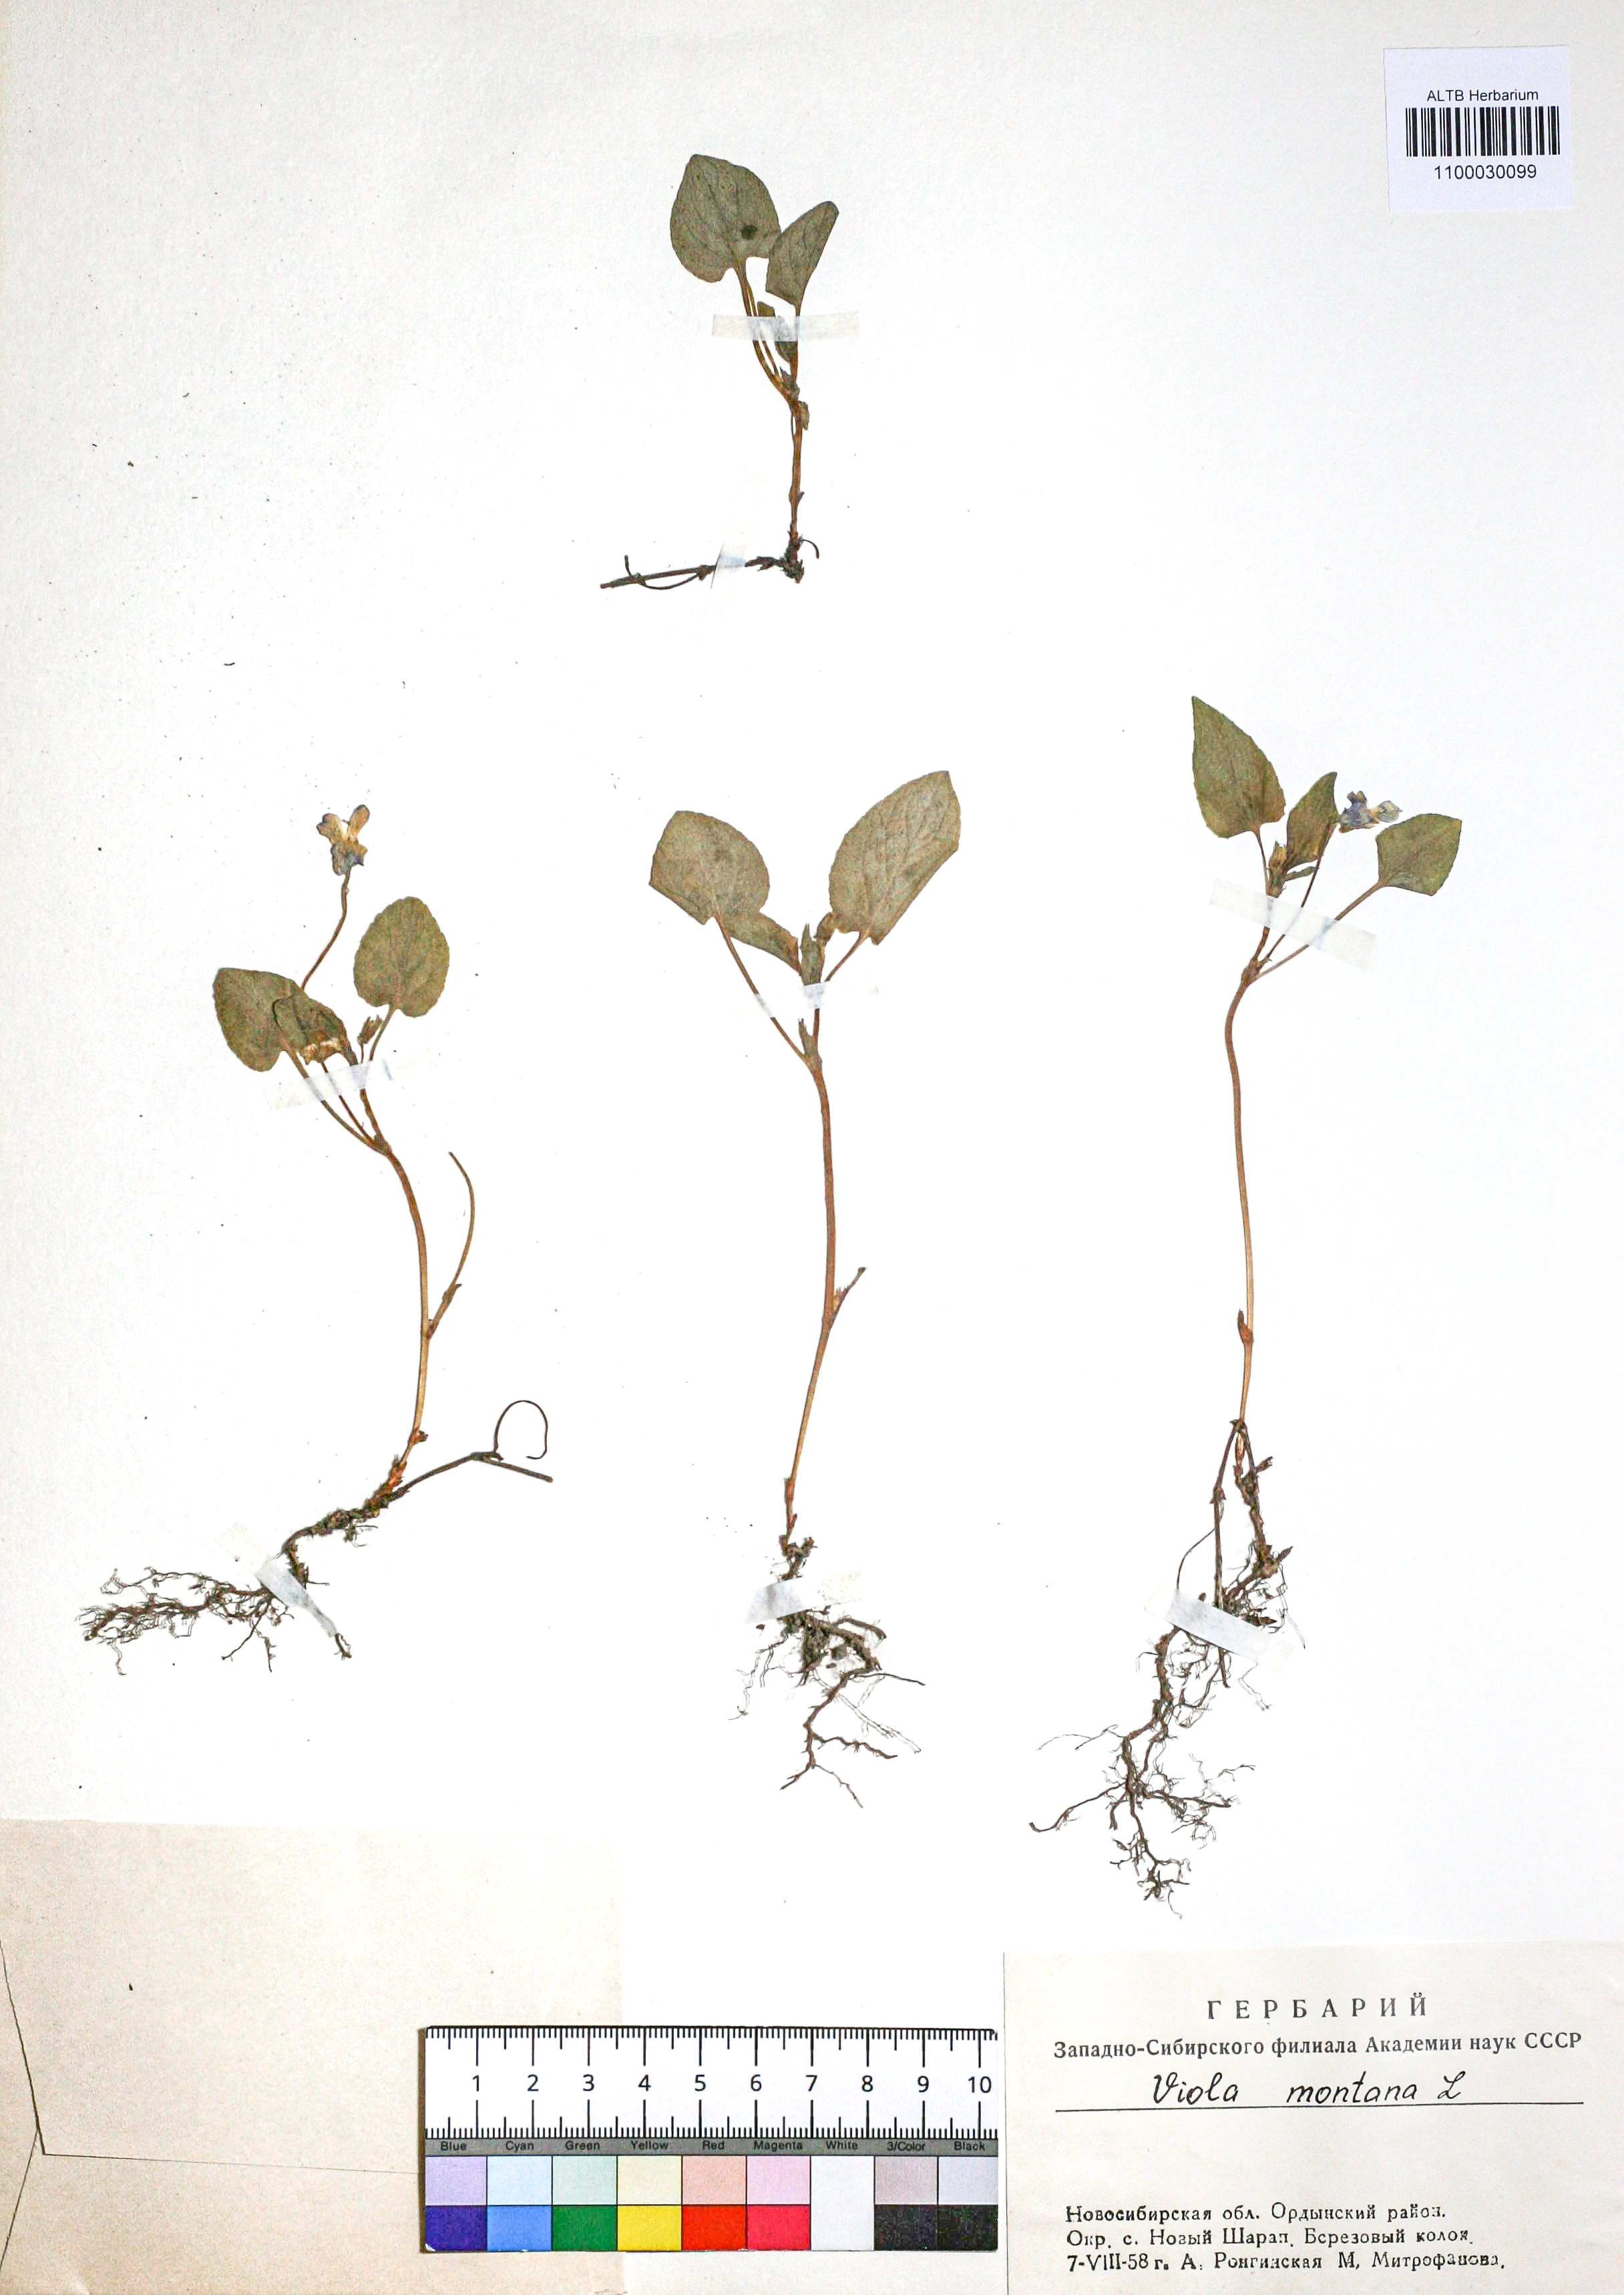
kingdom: Plantae
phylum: Tracheophyta
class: Magnoliopsida
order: Malpighiales
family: Violaceae
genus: Viola
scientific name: Viola ruppii
